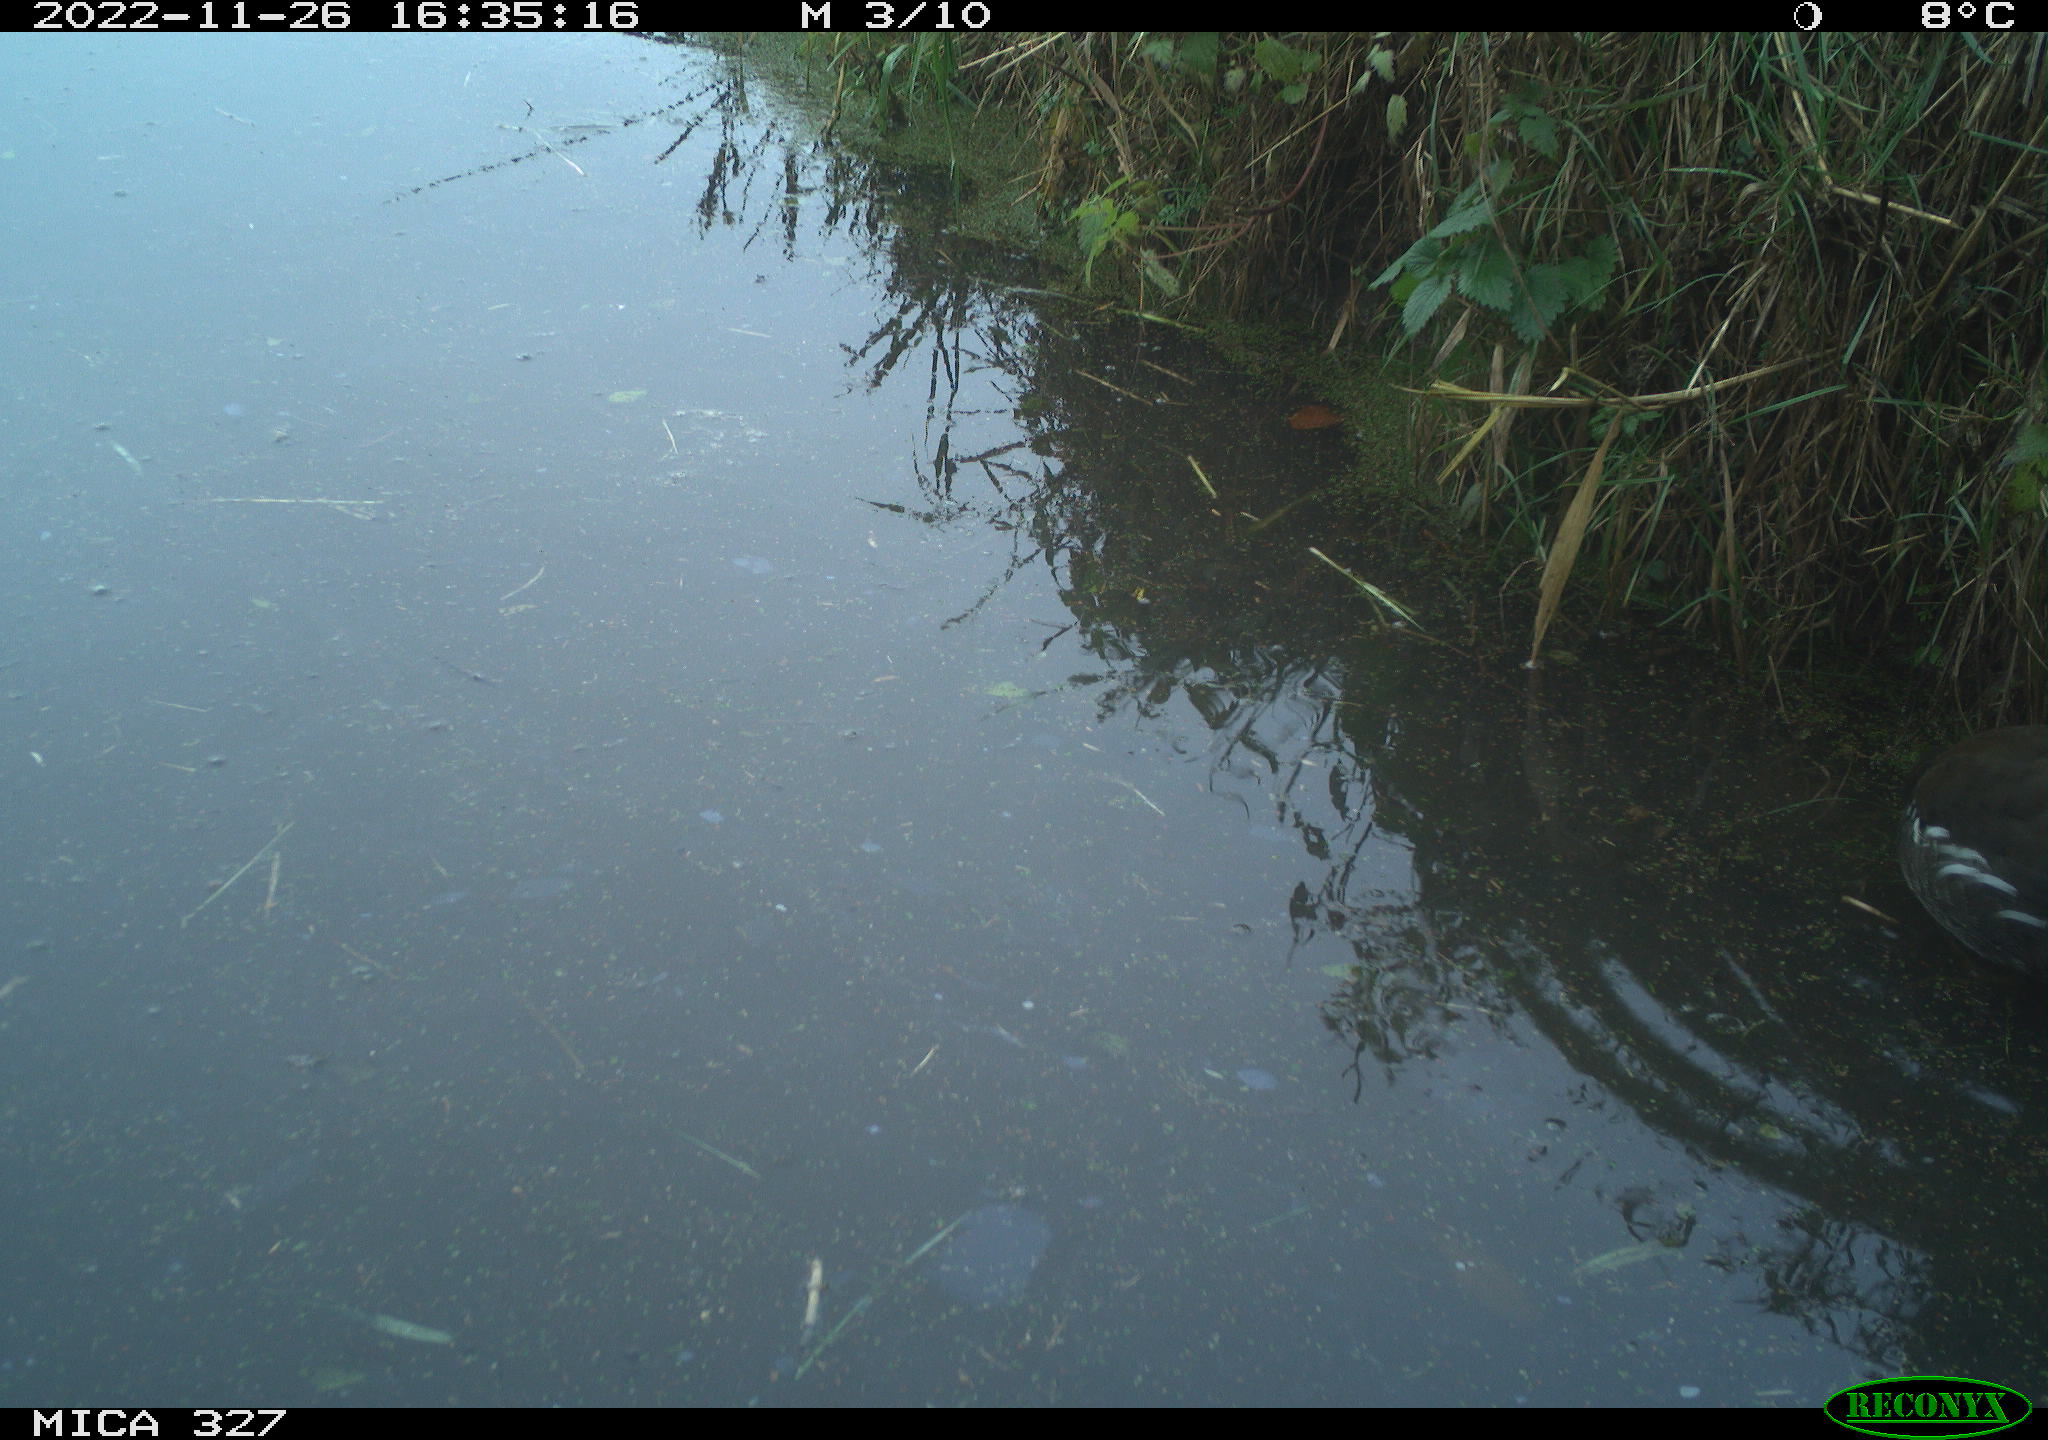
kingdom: Animalia
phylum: Chordata
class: Aves
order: Gruiformes
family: Rallidae
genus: Gallinula
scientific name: Gallinula chloropus
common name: Common moorhen
